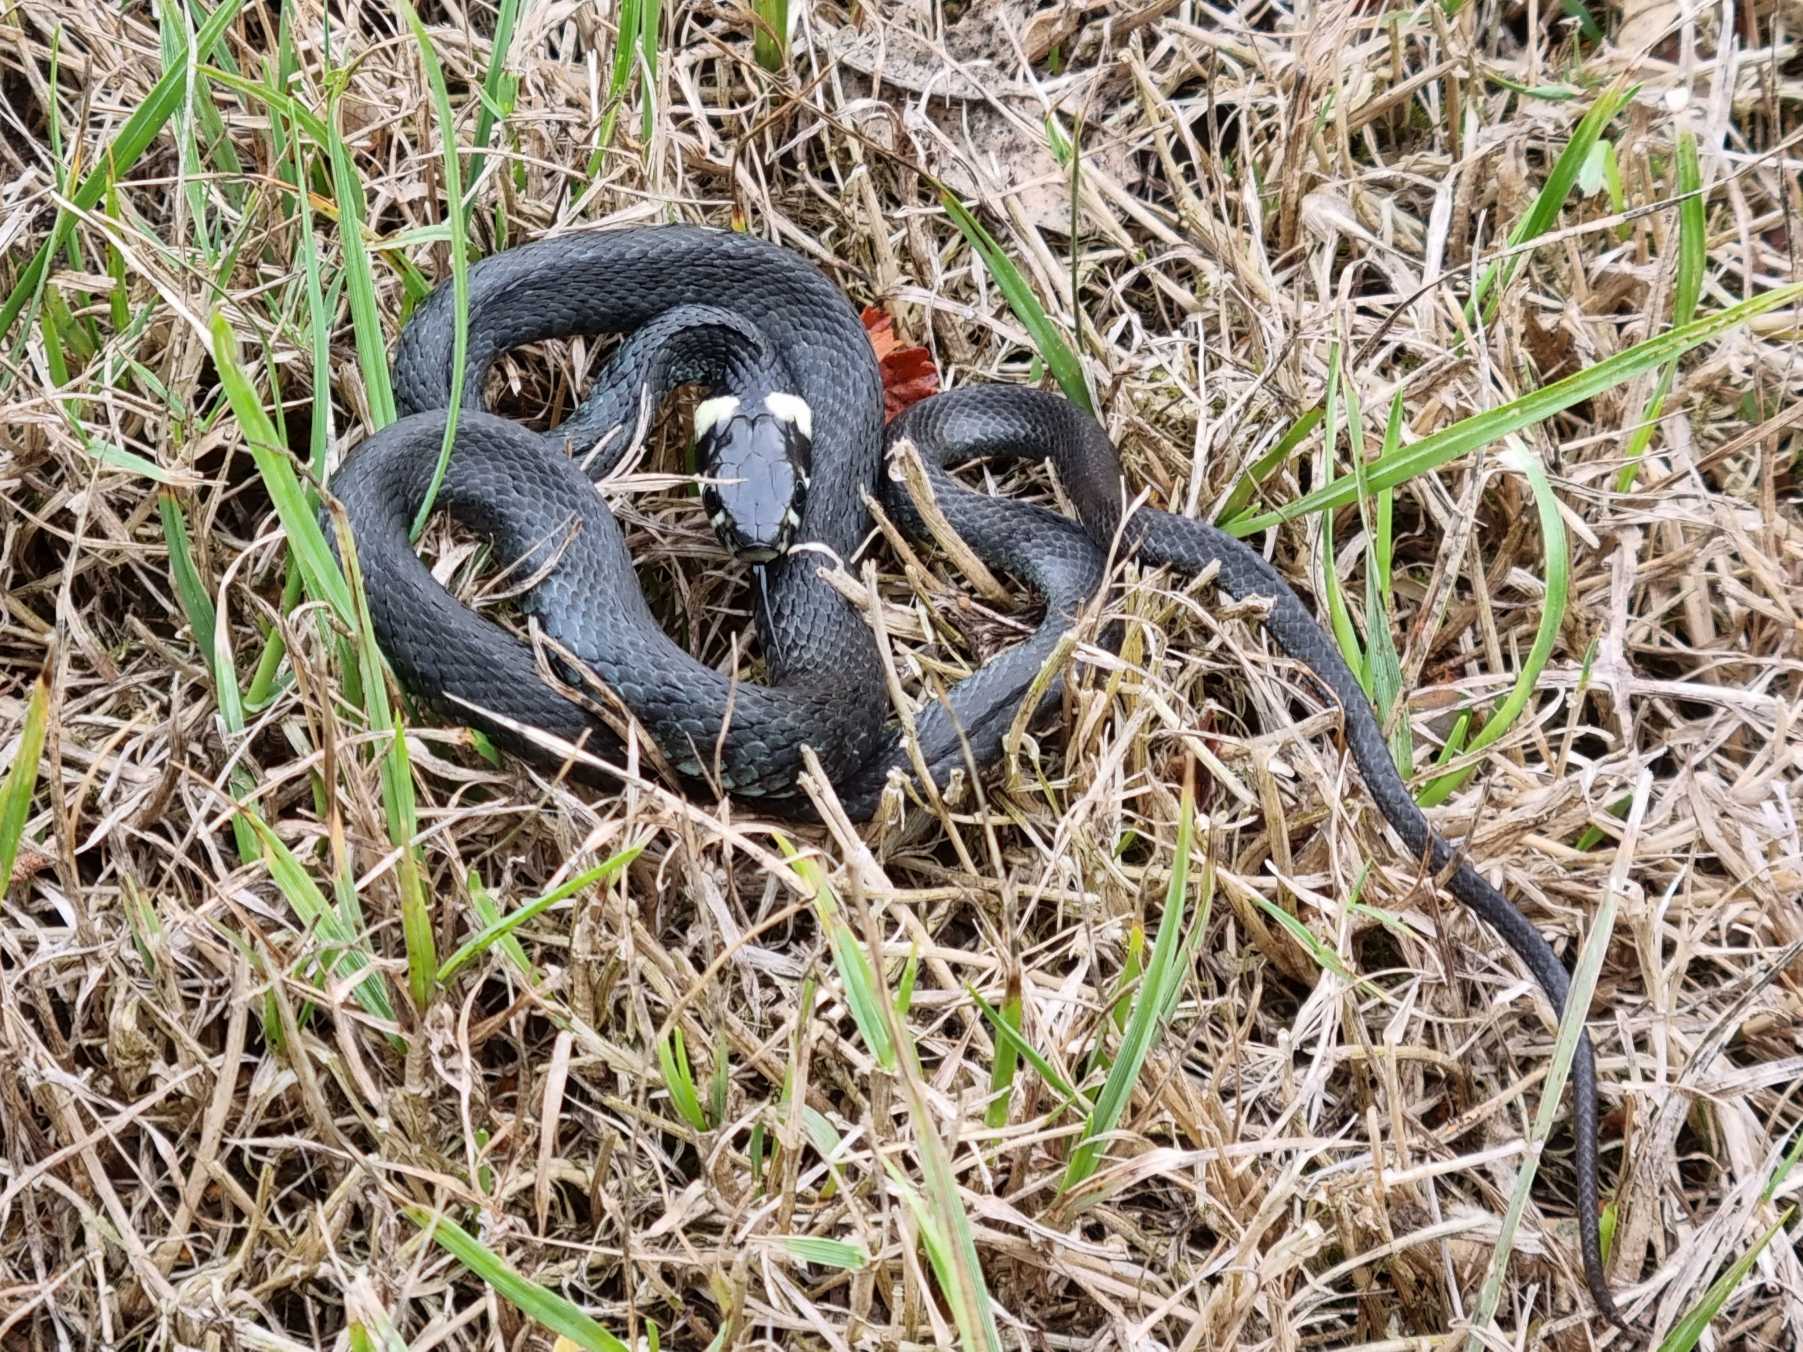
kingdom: Animalia
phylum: Chordata
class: Squamata
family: Colubridae
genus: Natrix
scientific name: Natrix natrix
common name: Snog
